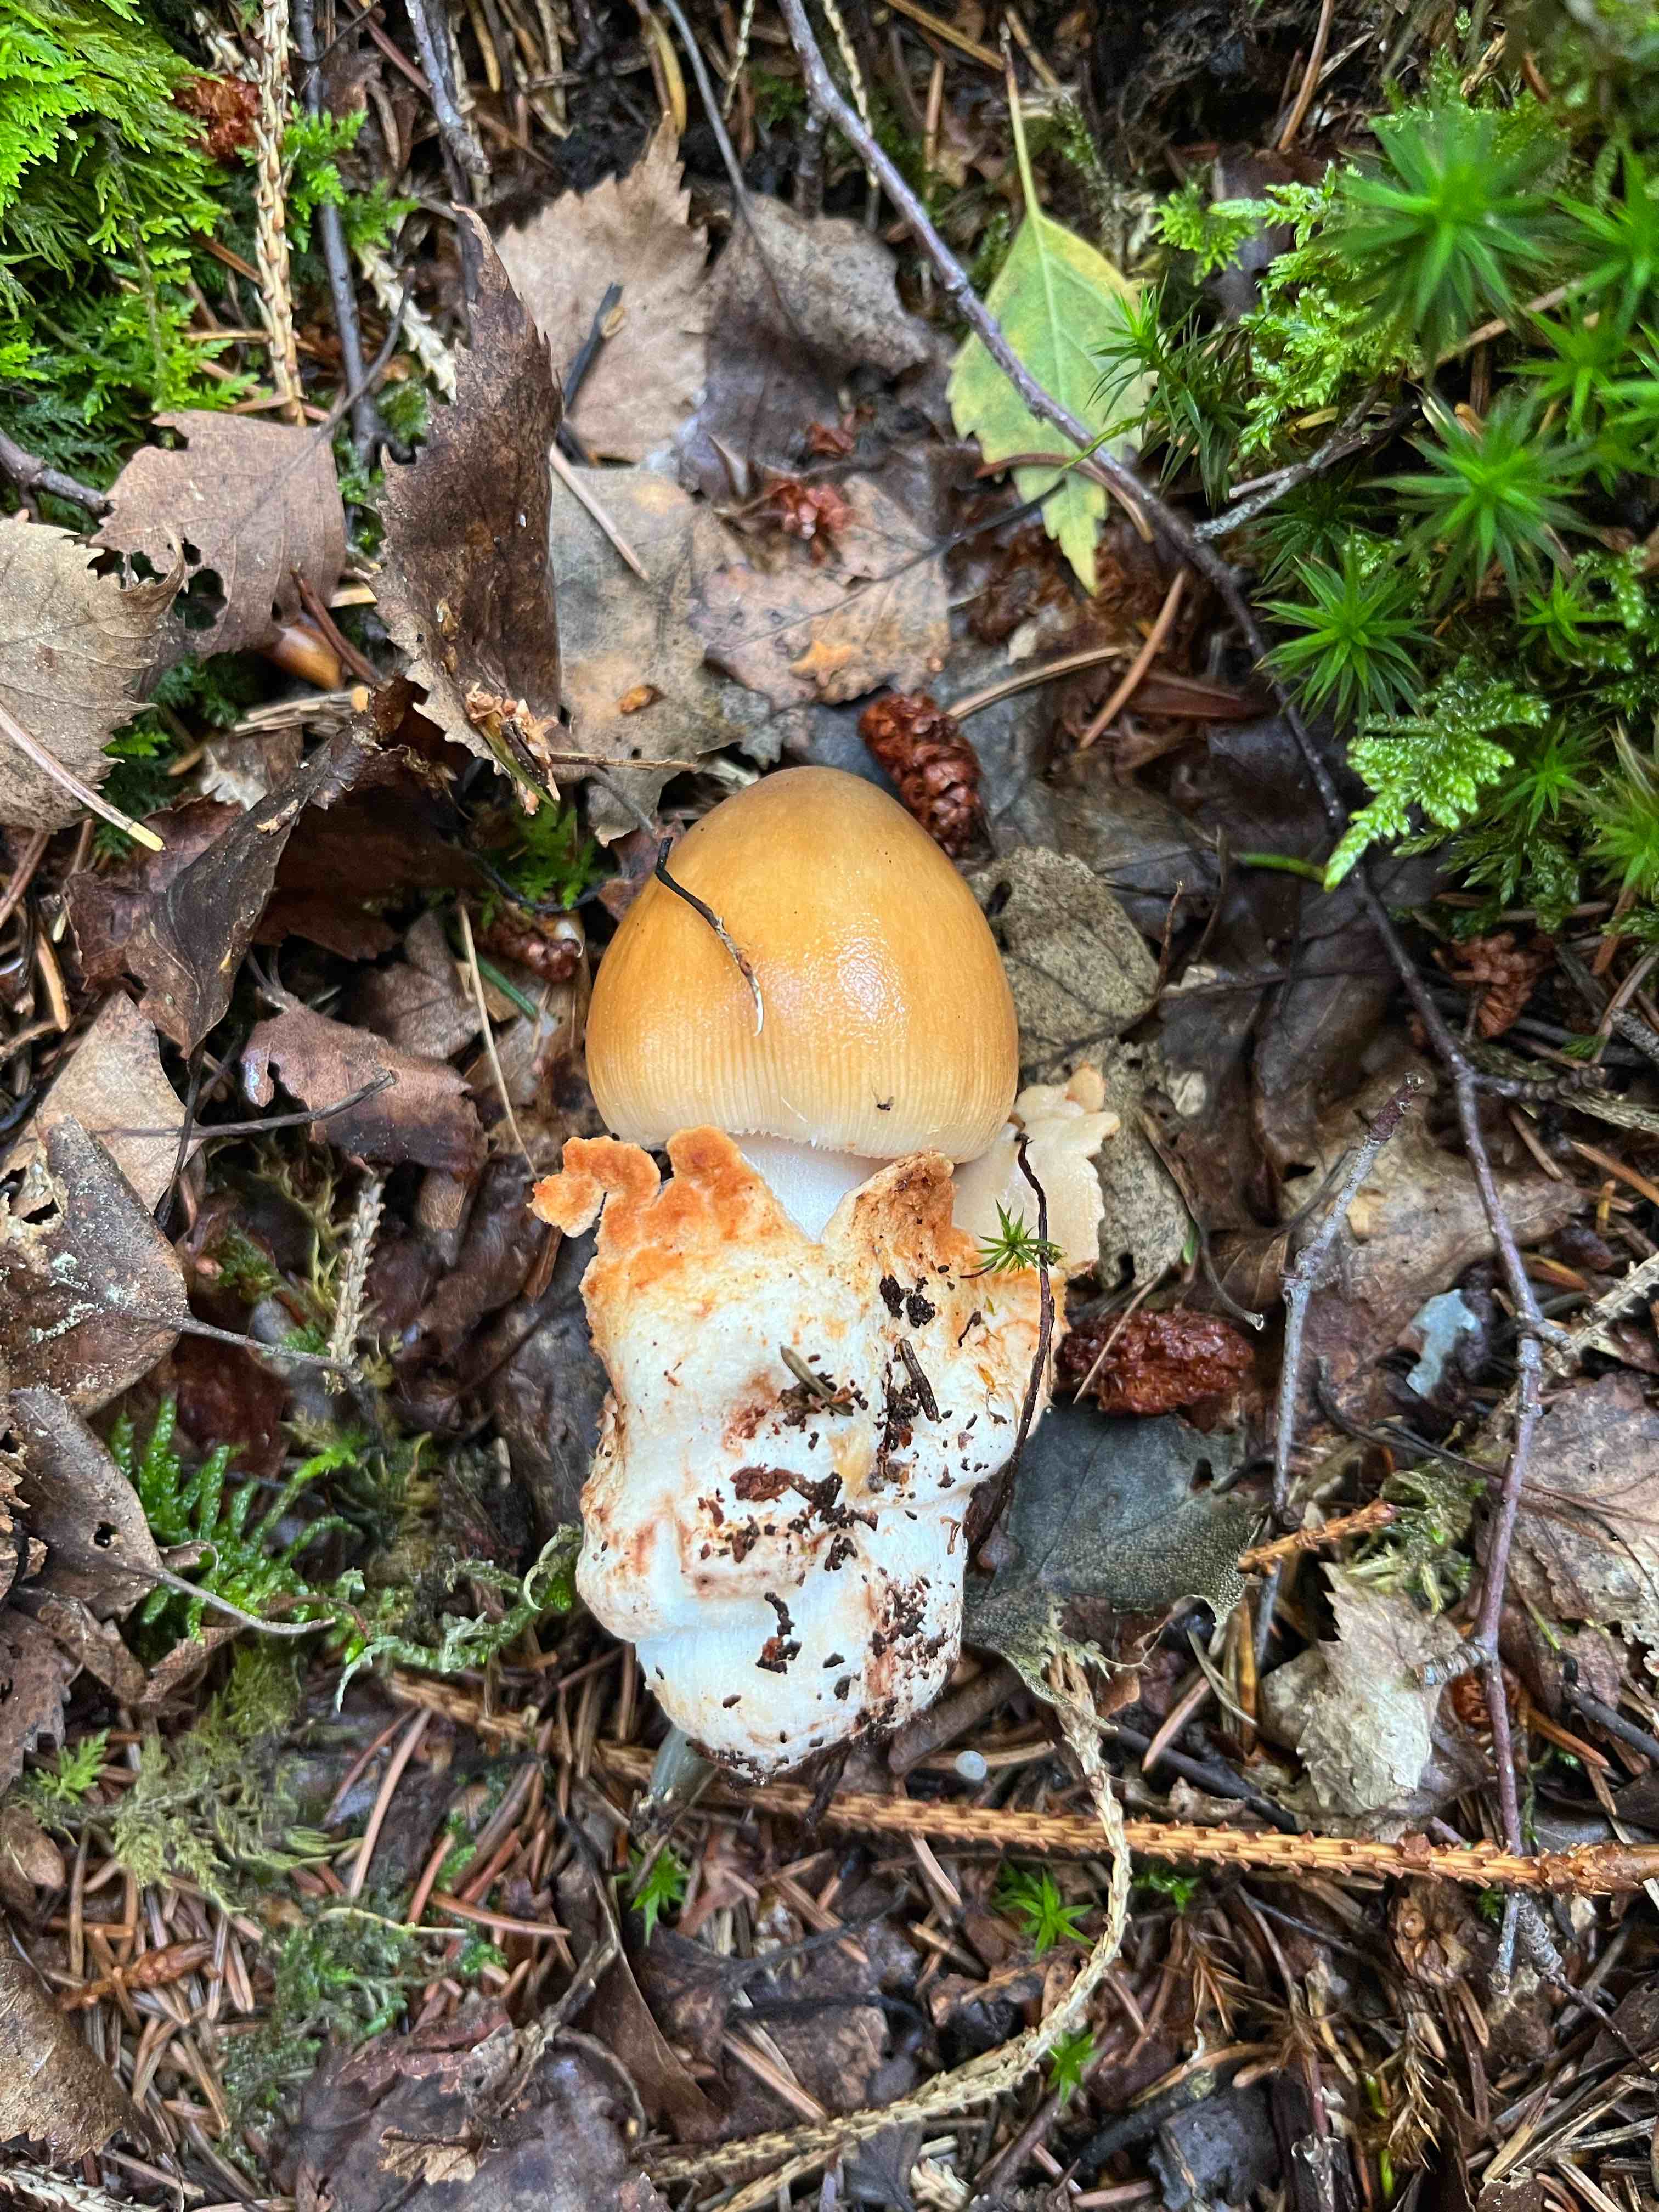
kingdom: Fungi
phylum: Basidiomycota
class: Agaricomycetes
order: Agaricales
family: Amanitaceae
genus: Amanita
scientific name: Amanita
